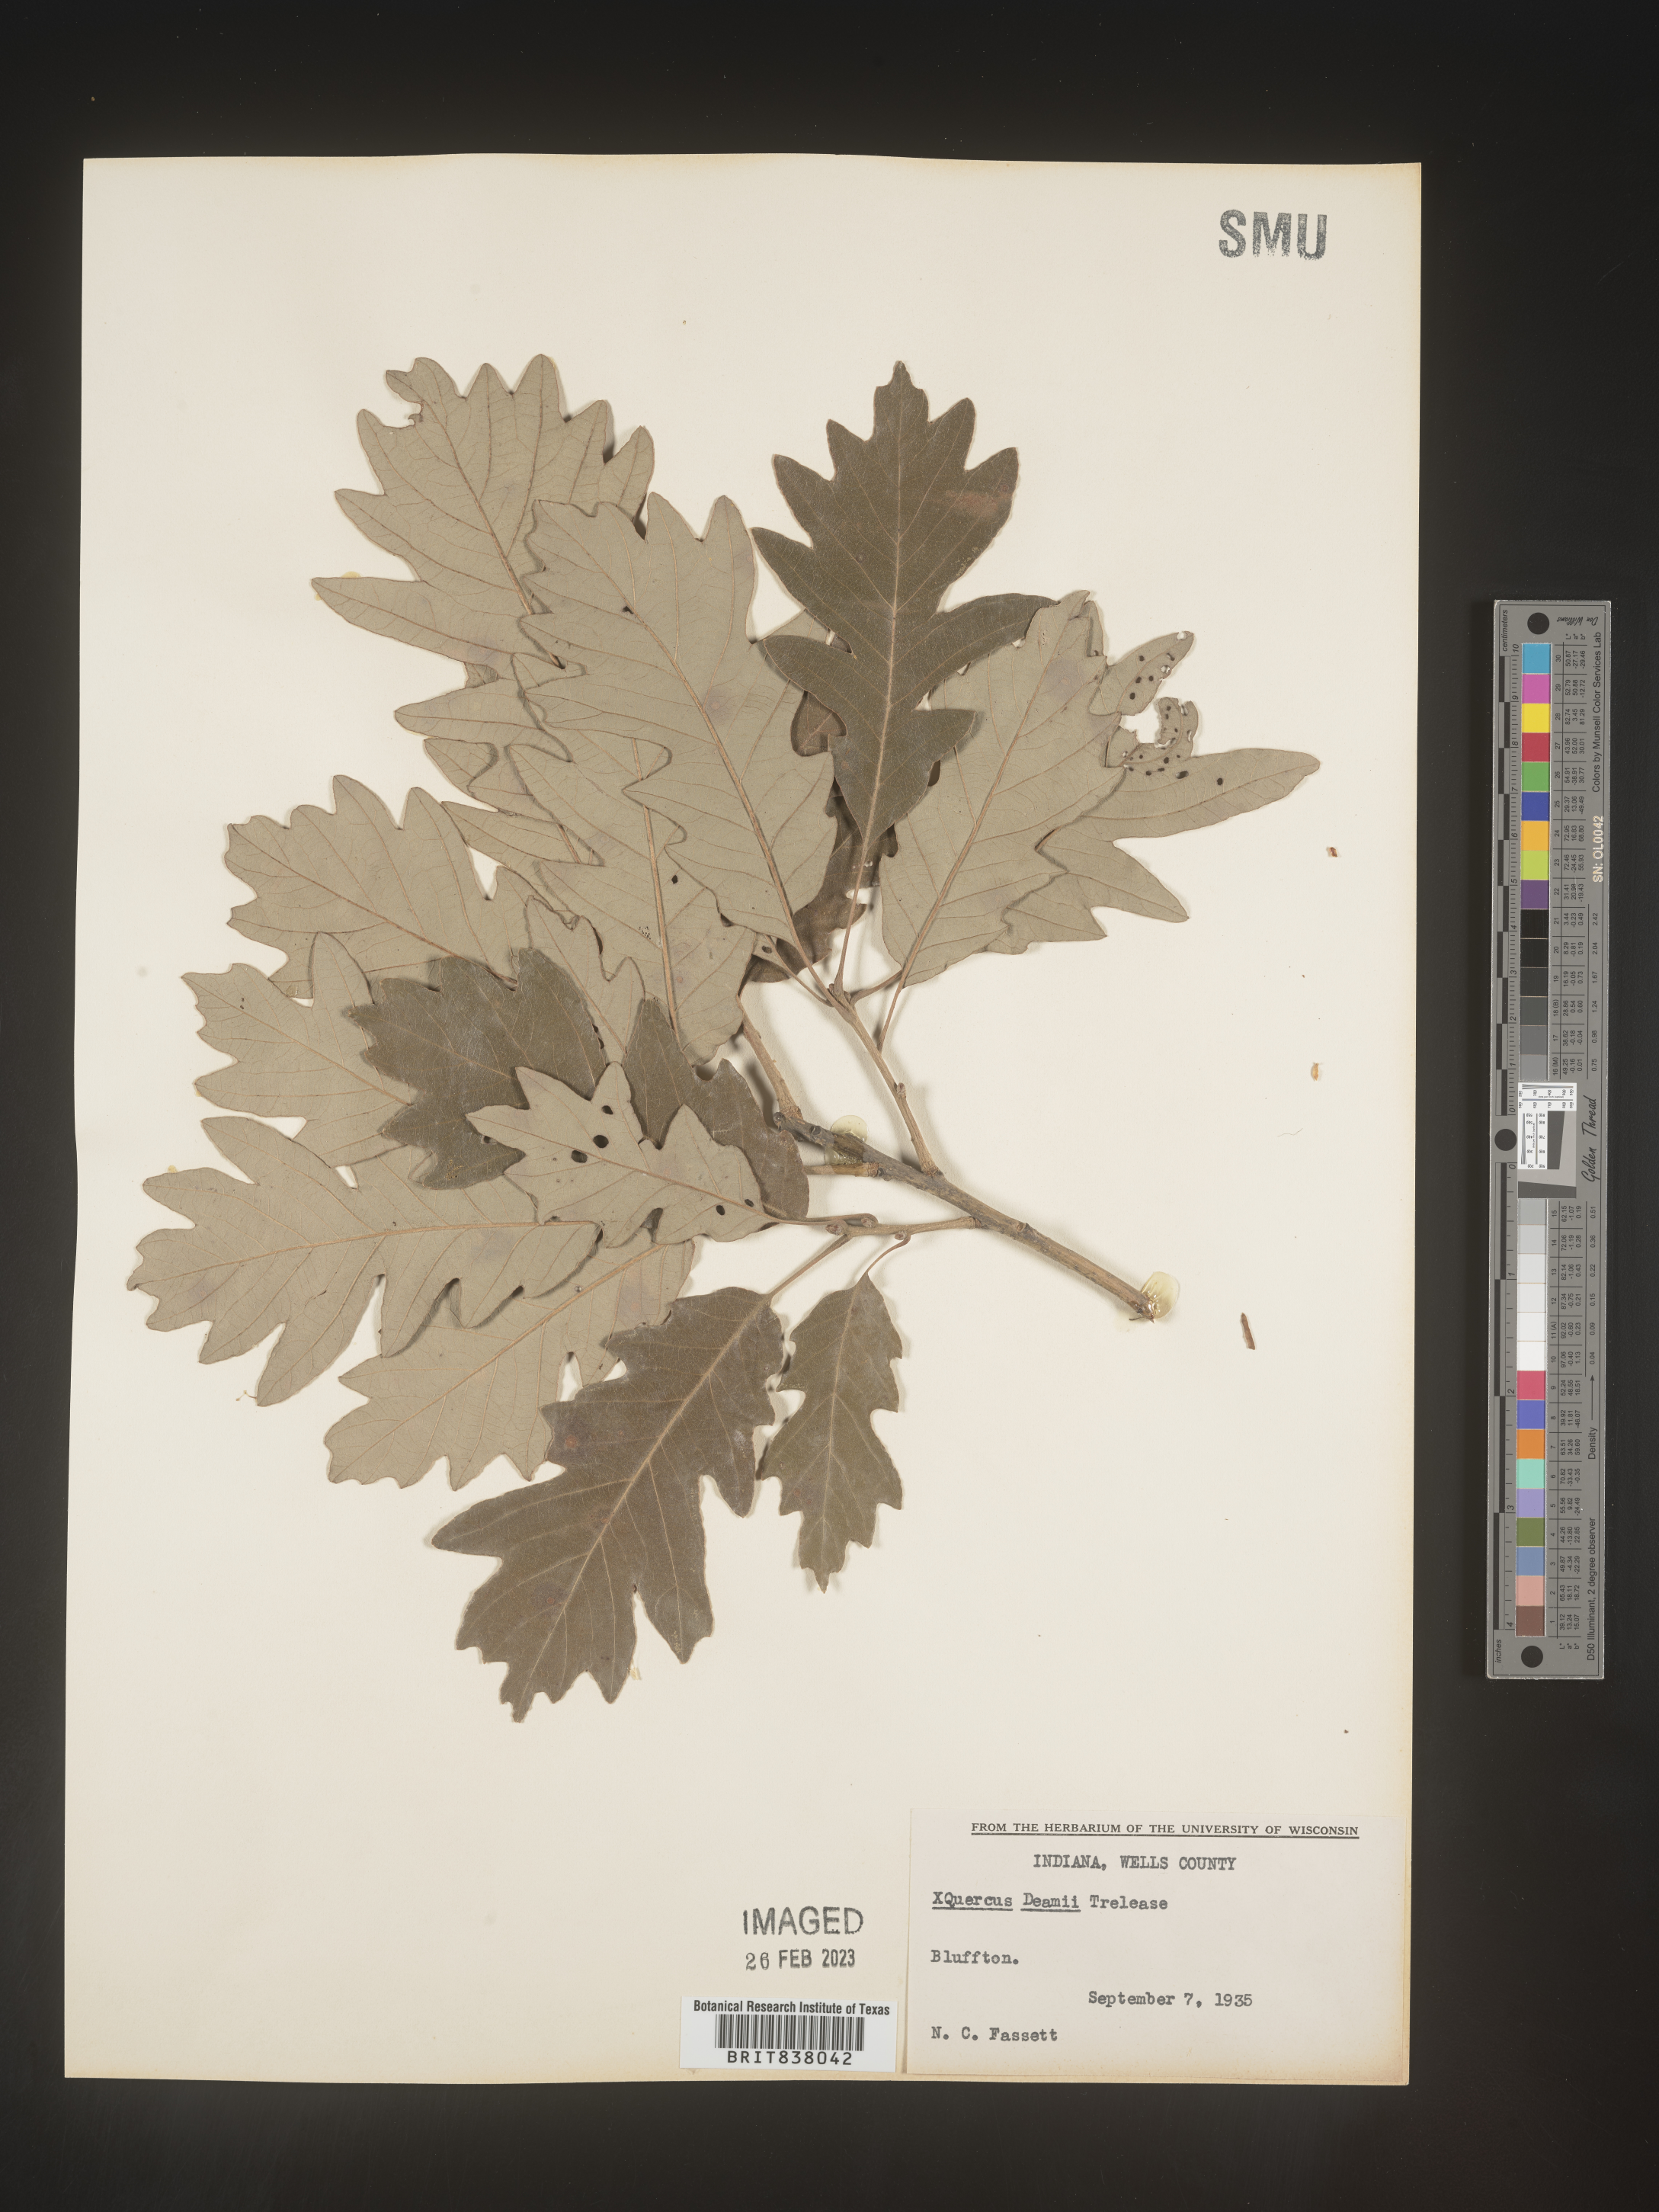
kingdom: Plantae
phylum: Tracheophyta
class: Magnoliopsida
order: Fagales
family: Fagaceae
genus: Quercus
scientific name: Quercus
